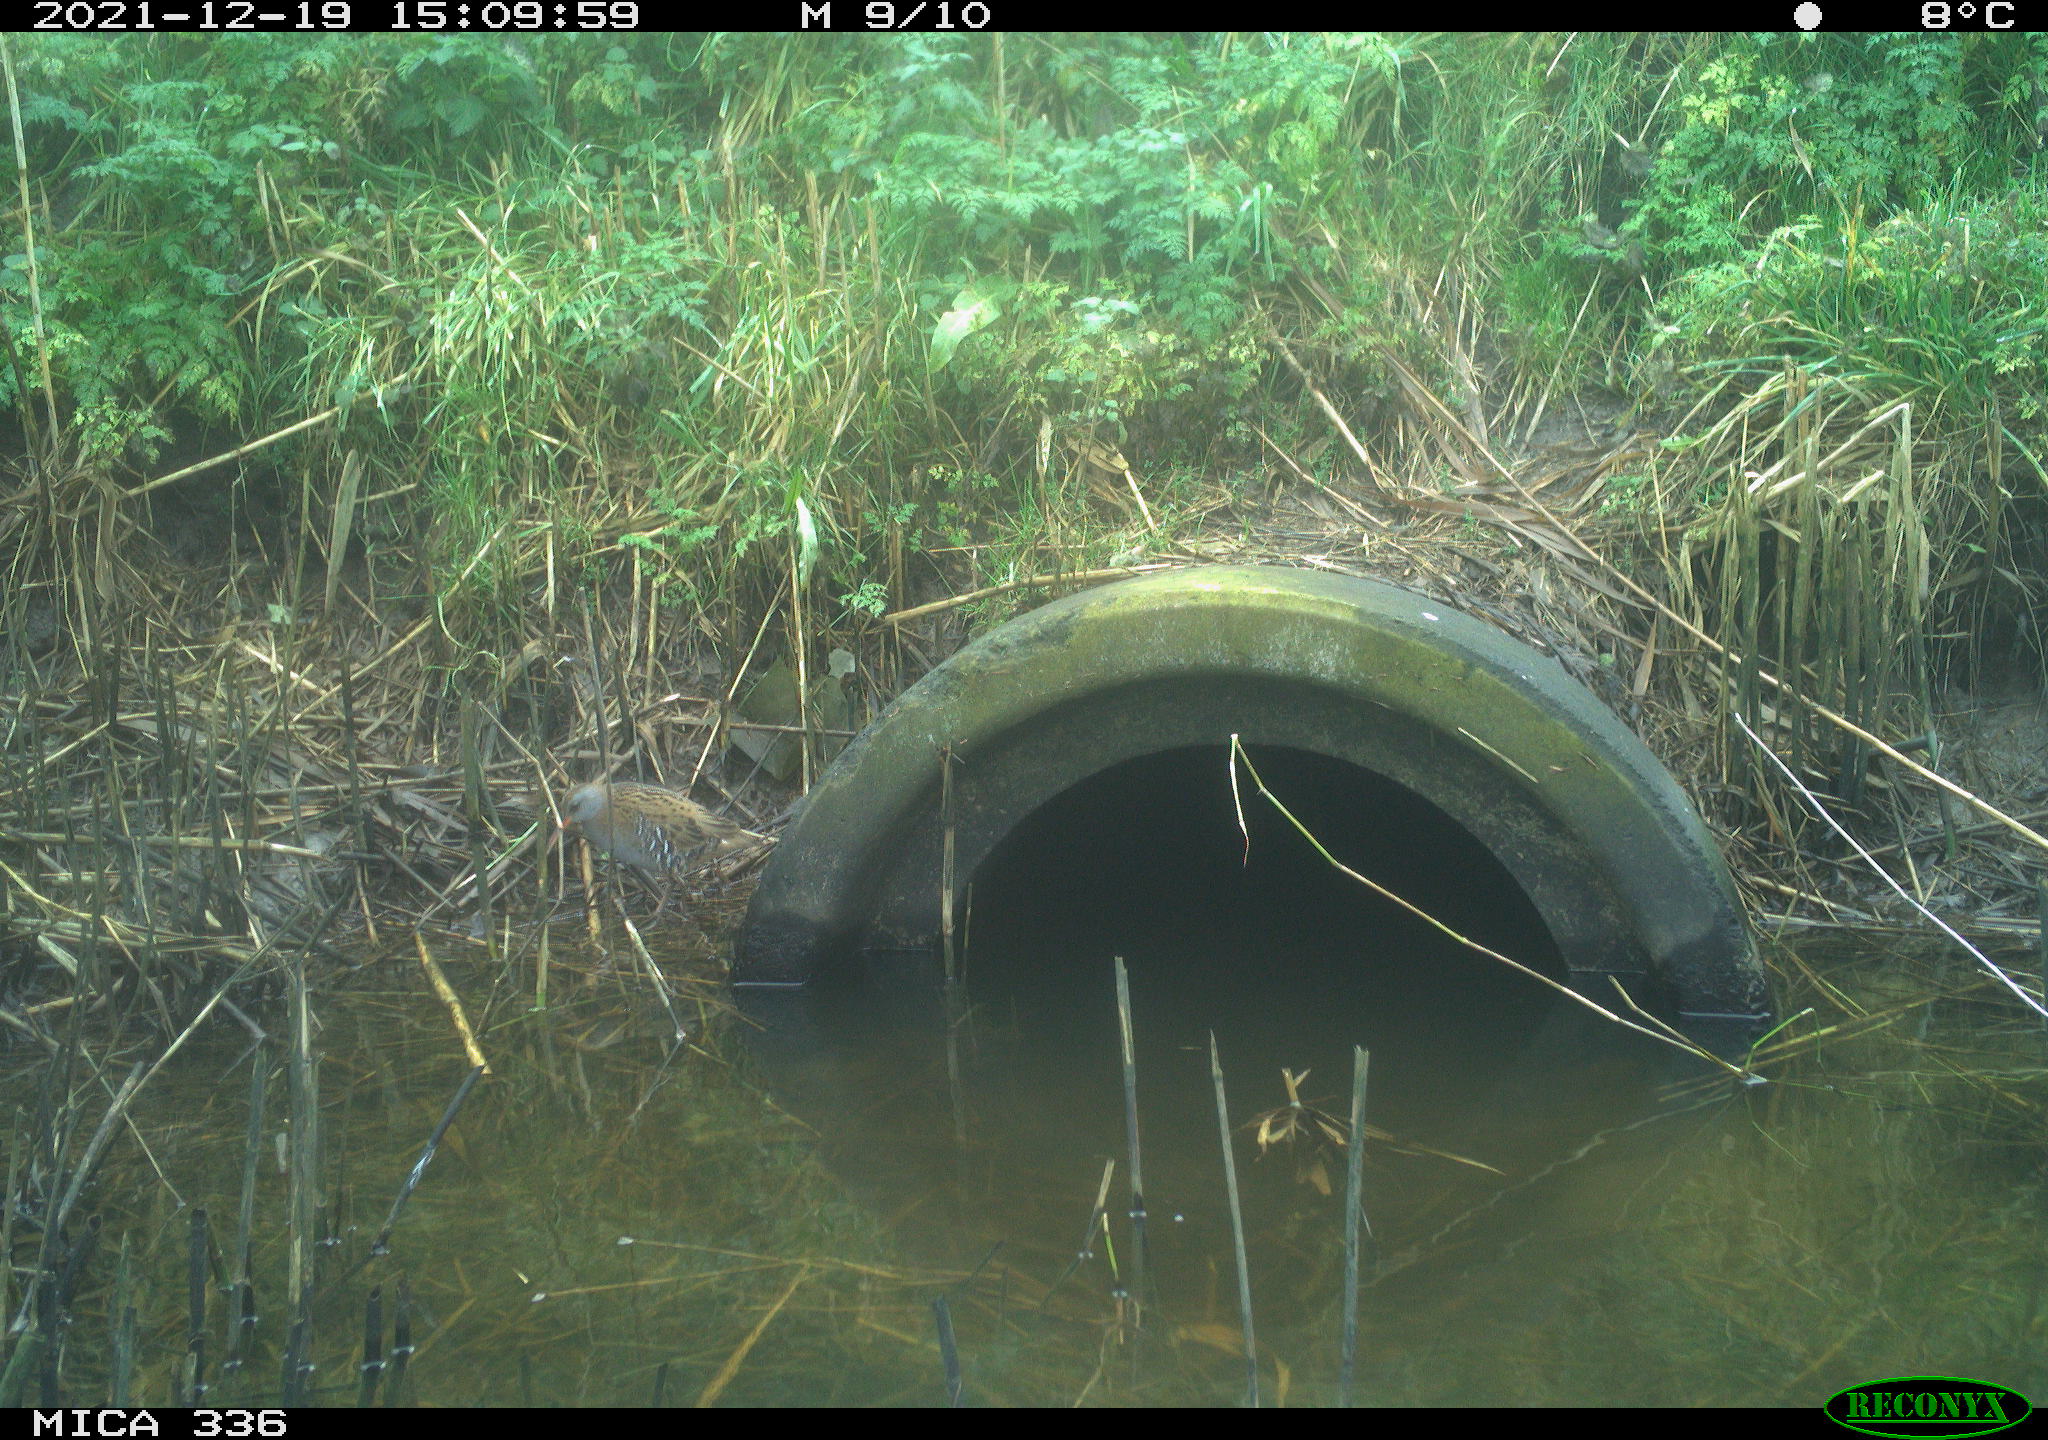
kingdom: Animalia
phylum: Chordata
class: Aves
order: Gruiformes
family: Rallidae
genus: Gallinula
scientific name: Gallinula chloropus
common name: Common moorhen
